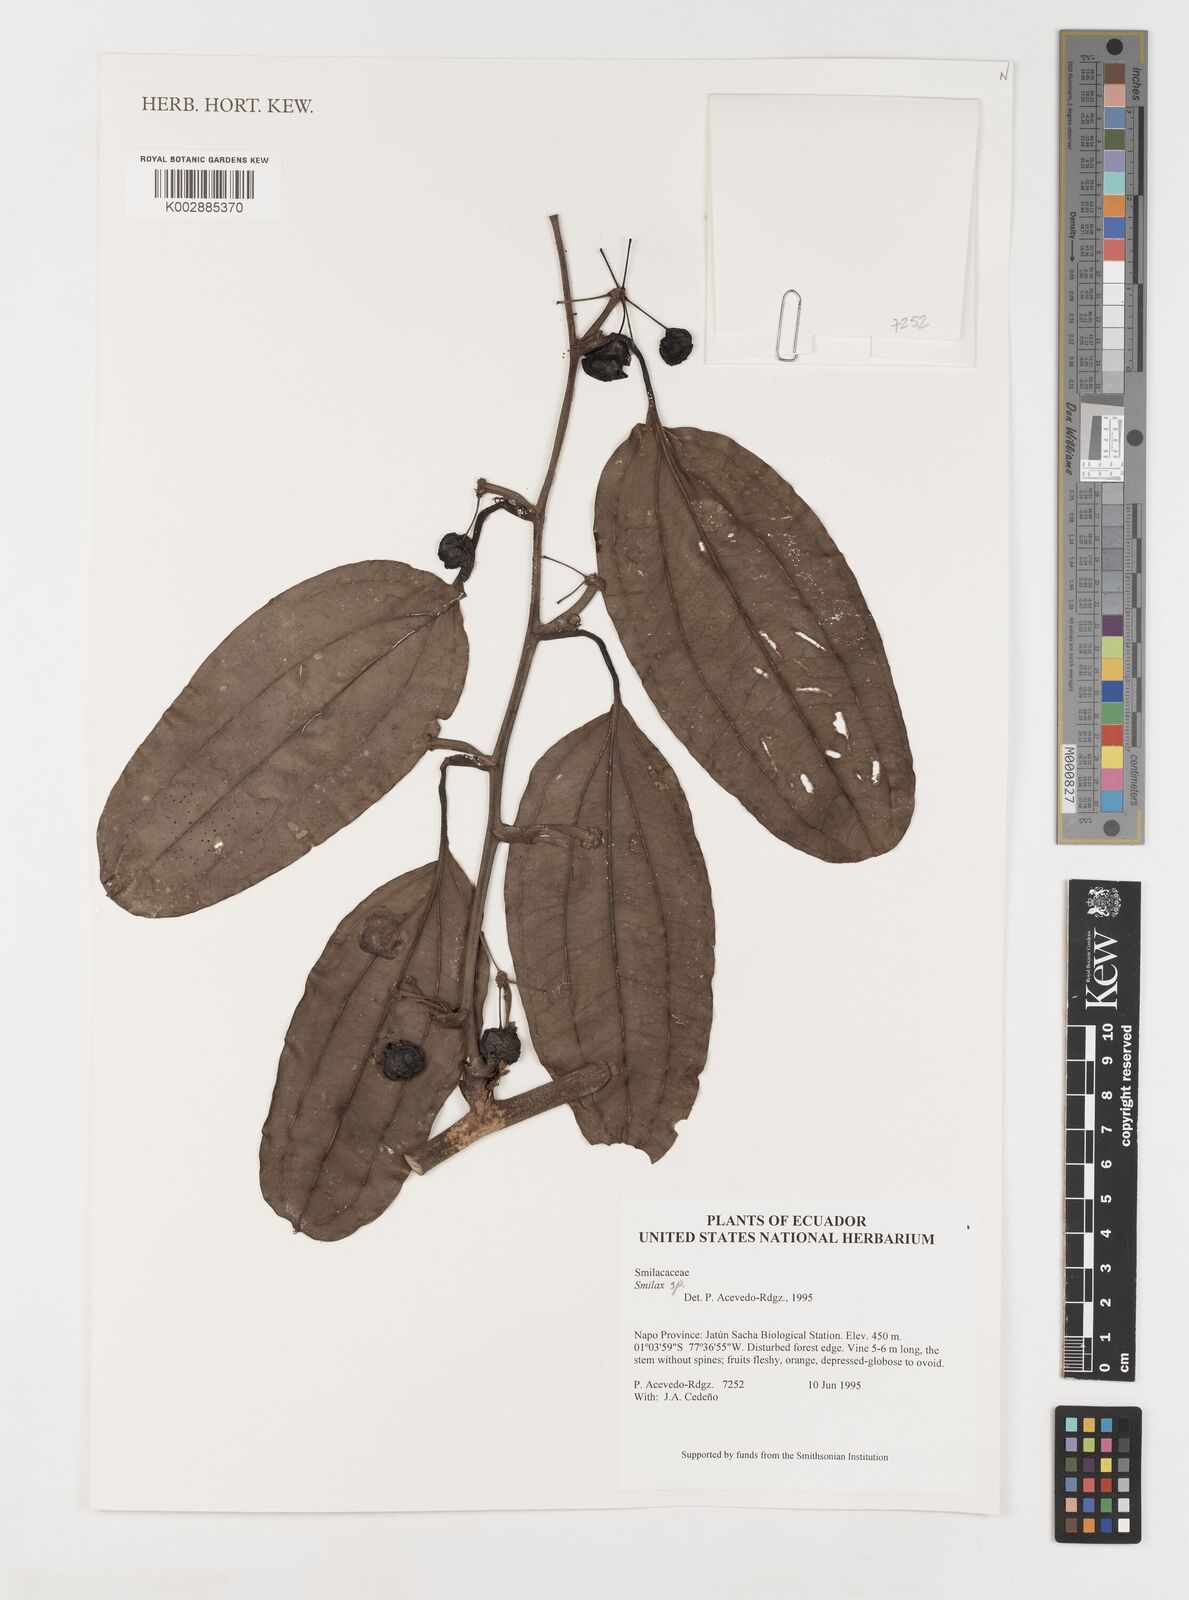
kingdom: Plantae
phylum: Tracheophyta
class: Liliopsida
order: Liliales
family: Smilacaceae
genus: Smilax
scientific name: Smilax
